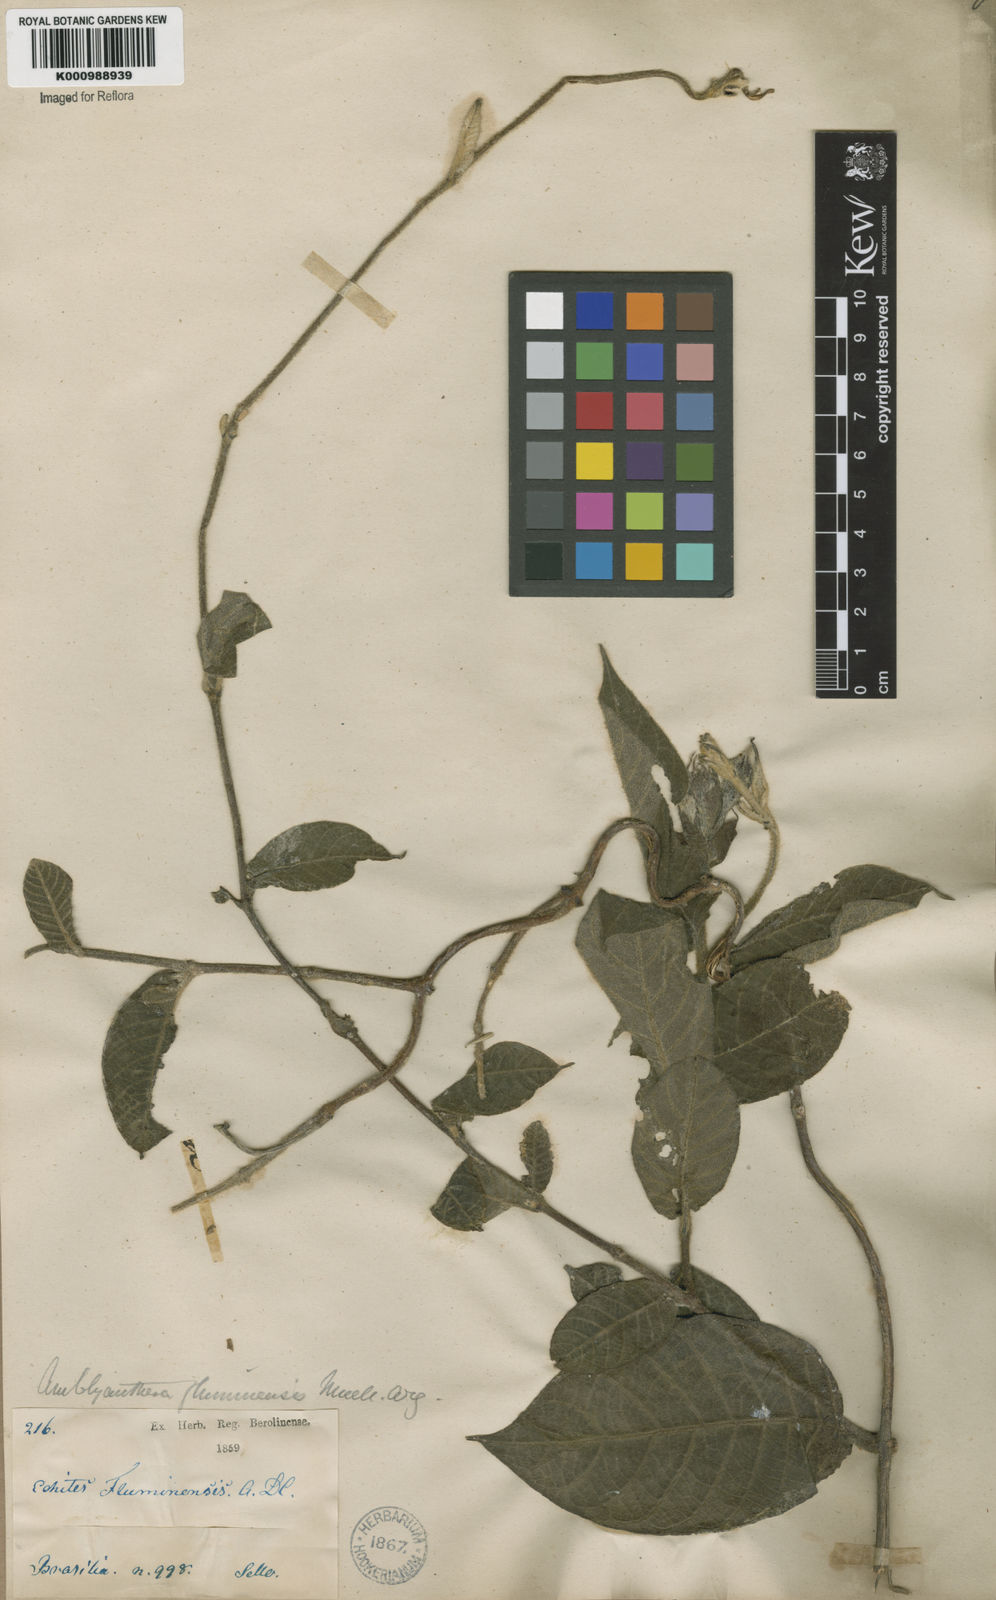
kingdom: Plantae
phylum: Tracheophyta
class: Magnoliopsida
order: Gentianales
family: Apocynaceae
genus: Mandevilla
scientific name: Mandevilla hirsuta
